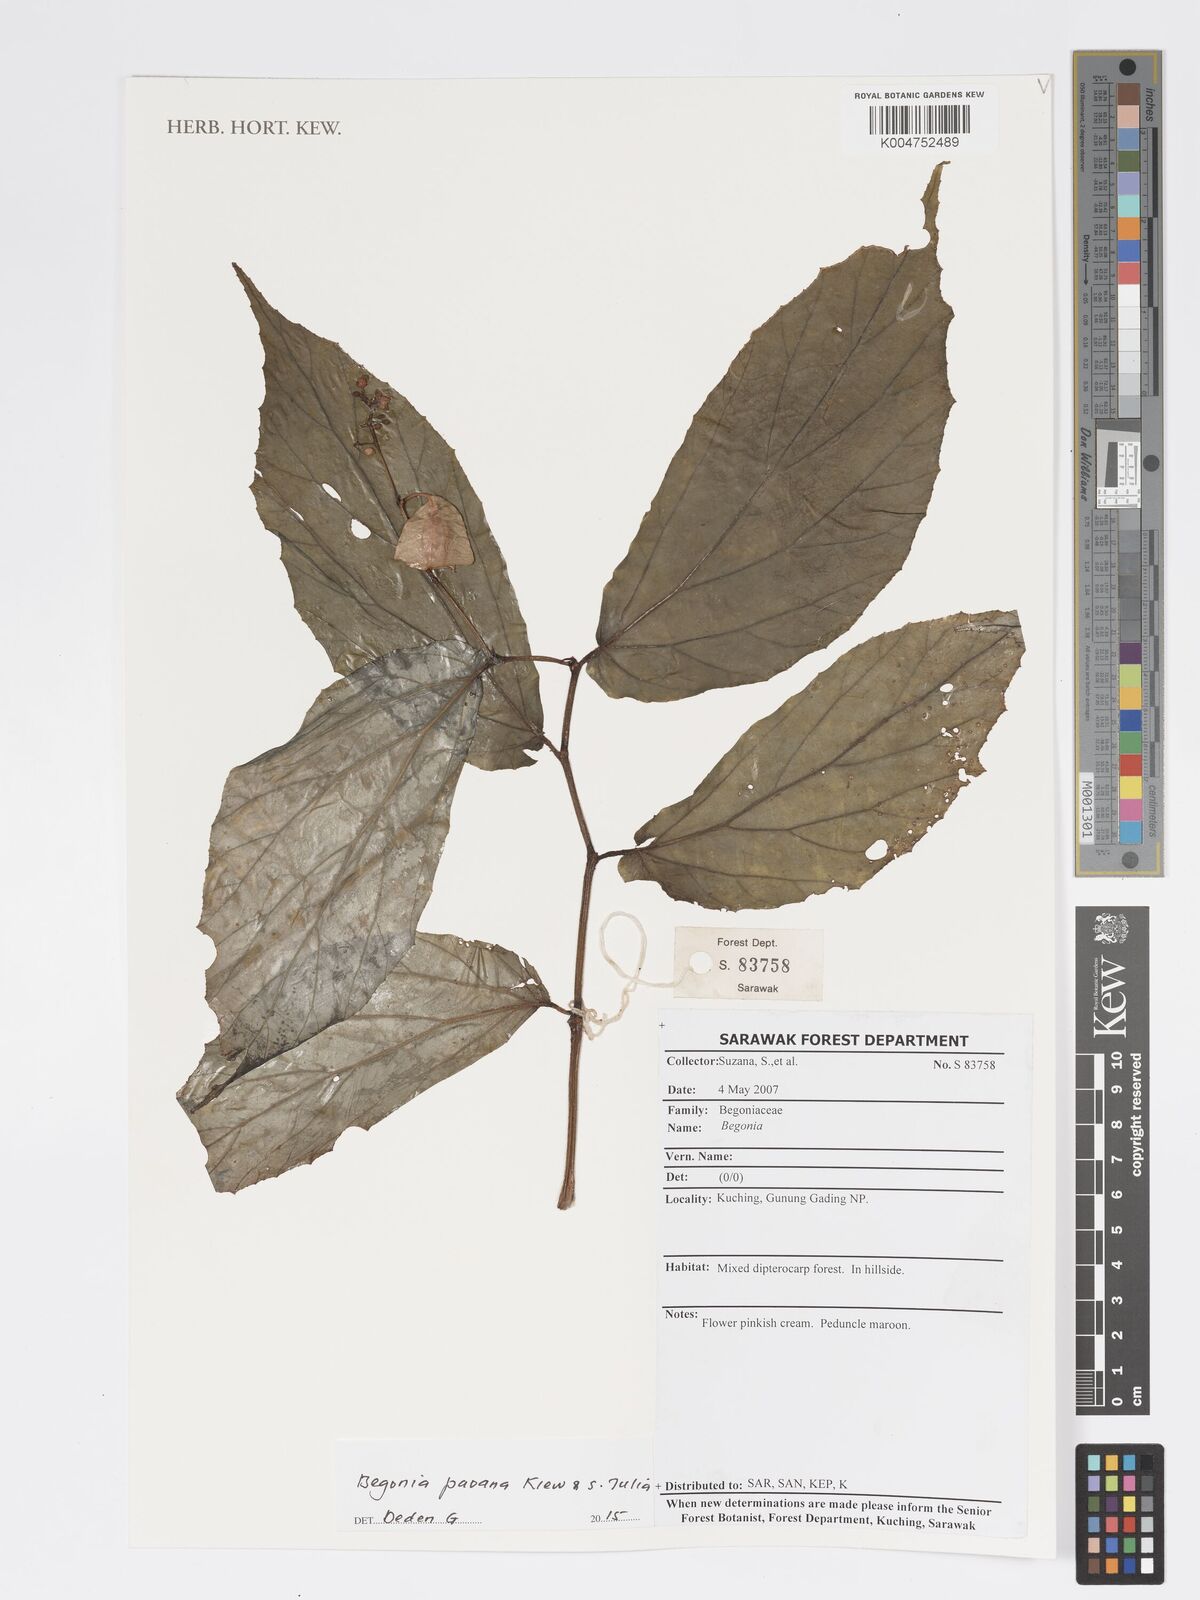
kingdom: Plantae
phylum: Tracheophyta
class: Magnoliopsida
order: Cucurbitales
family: Begoniaceae
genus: Begonia
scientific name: Begonia paoana
